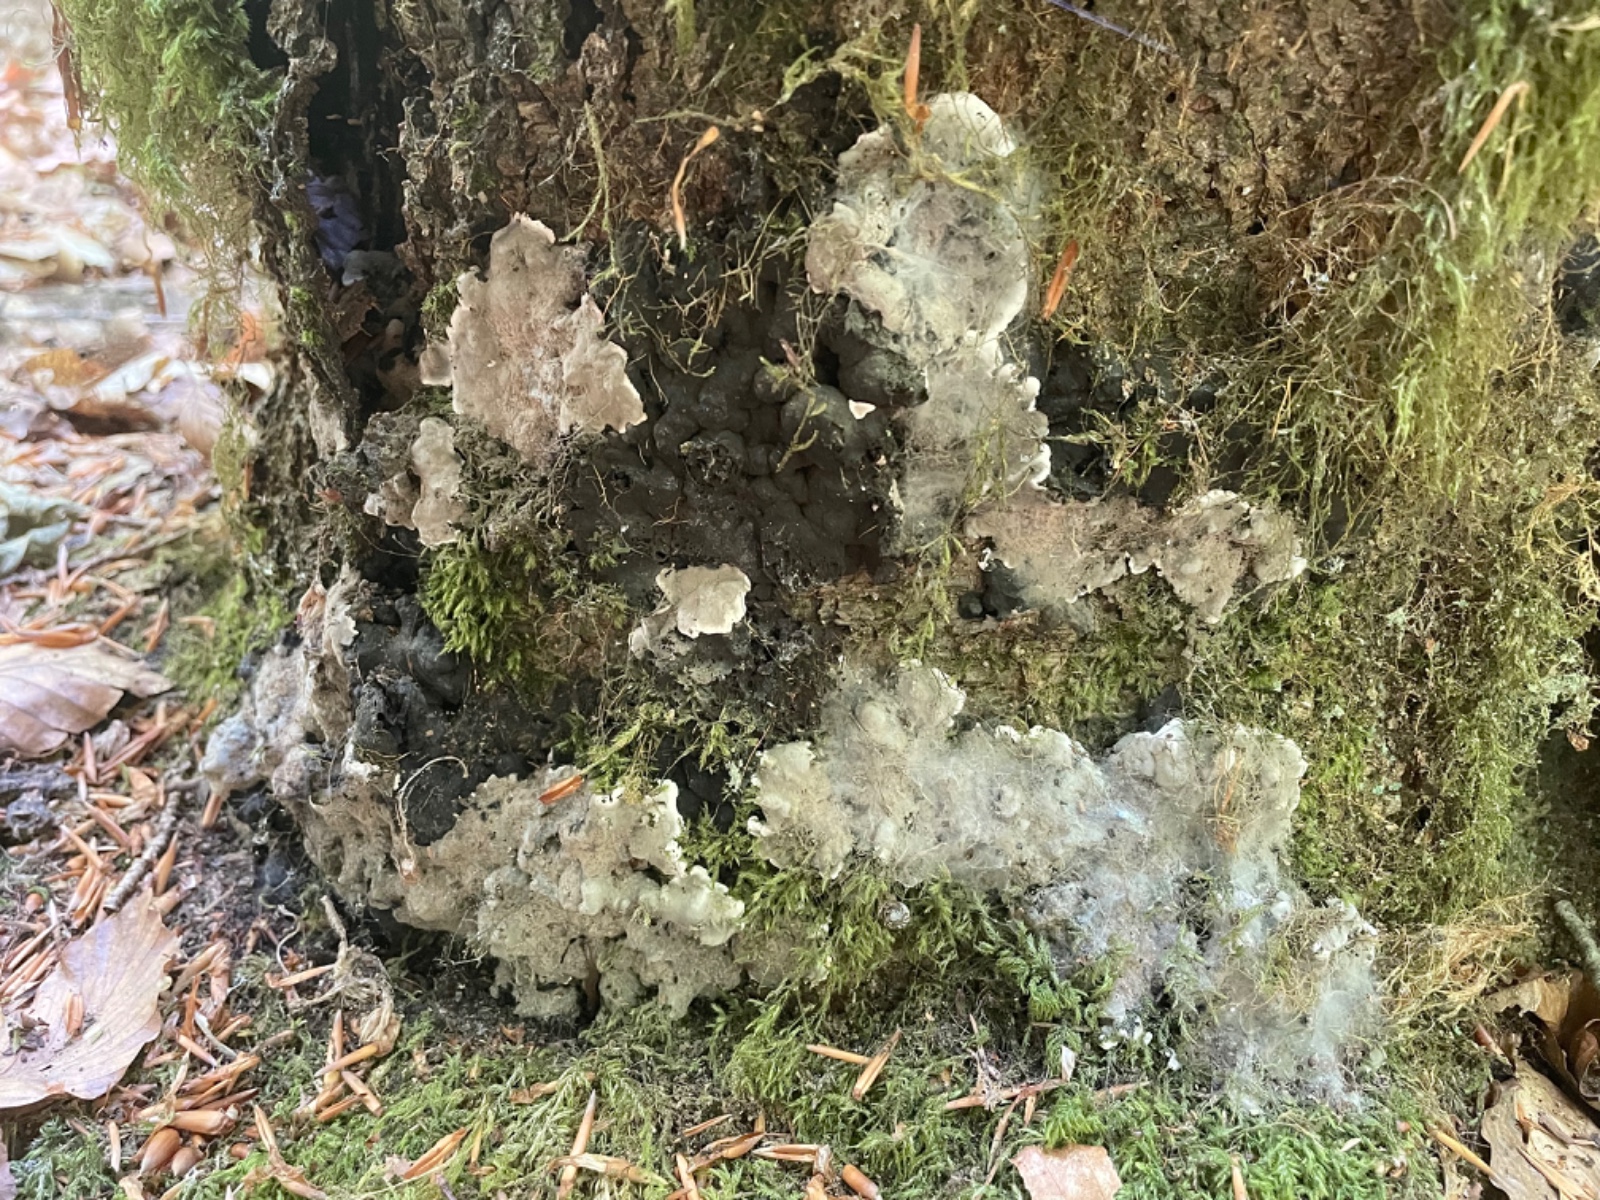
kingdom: Fungi
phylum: Ascomycota
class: Sordariomycetes
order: Xylariales
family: Xylariaceae
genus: Kretzschmaria
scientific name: Kretzschmaria deusta
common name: stor kulsvamp
